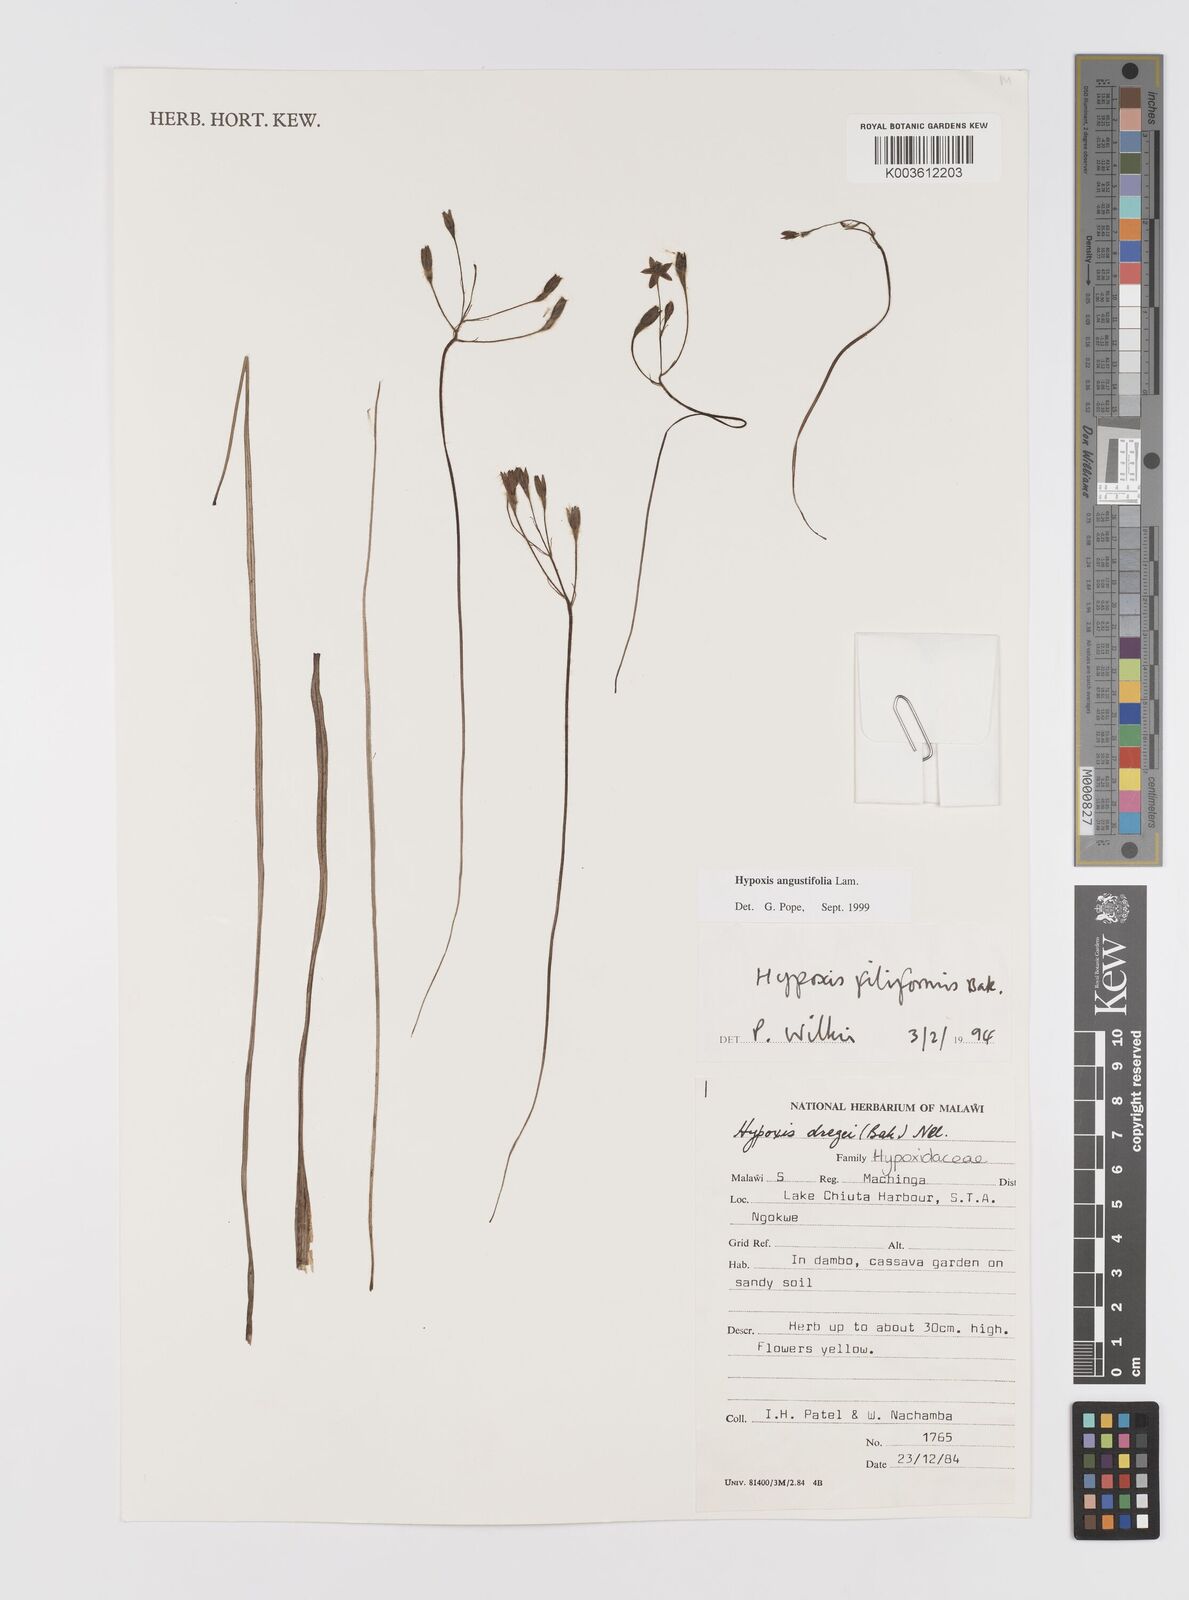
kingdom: Plantae
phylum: Tracheophyta
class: Liliopsida
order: Asparagales
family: Hypoxidaceae
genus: Hypoxis
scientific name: Hypoxis angustifolia
